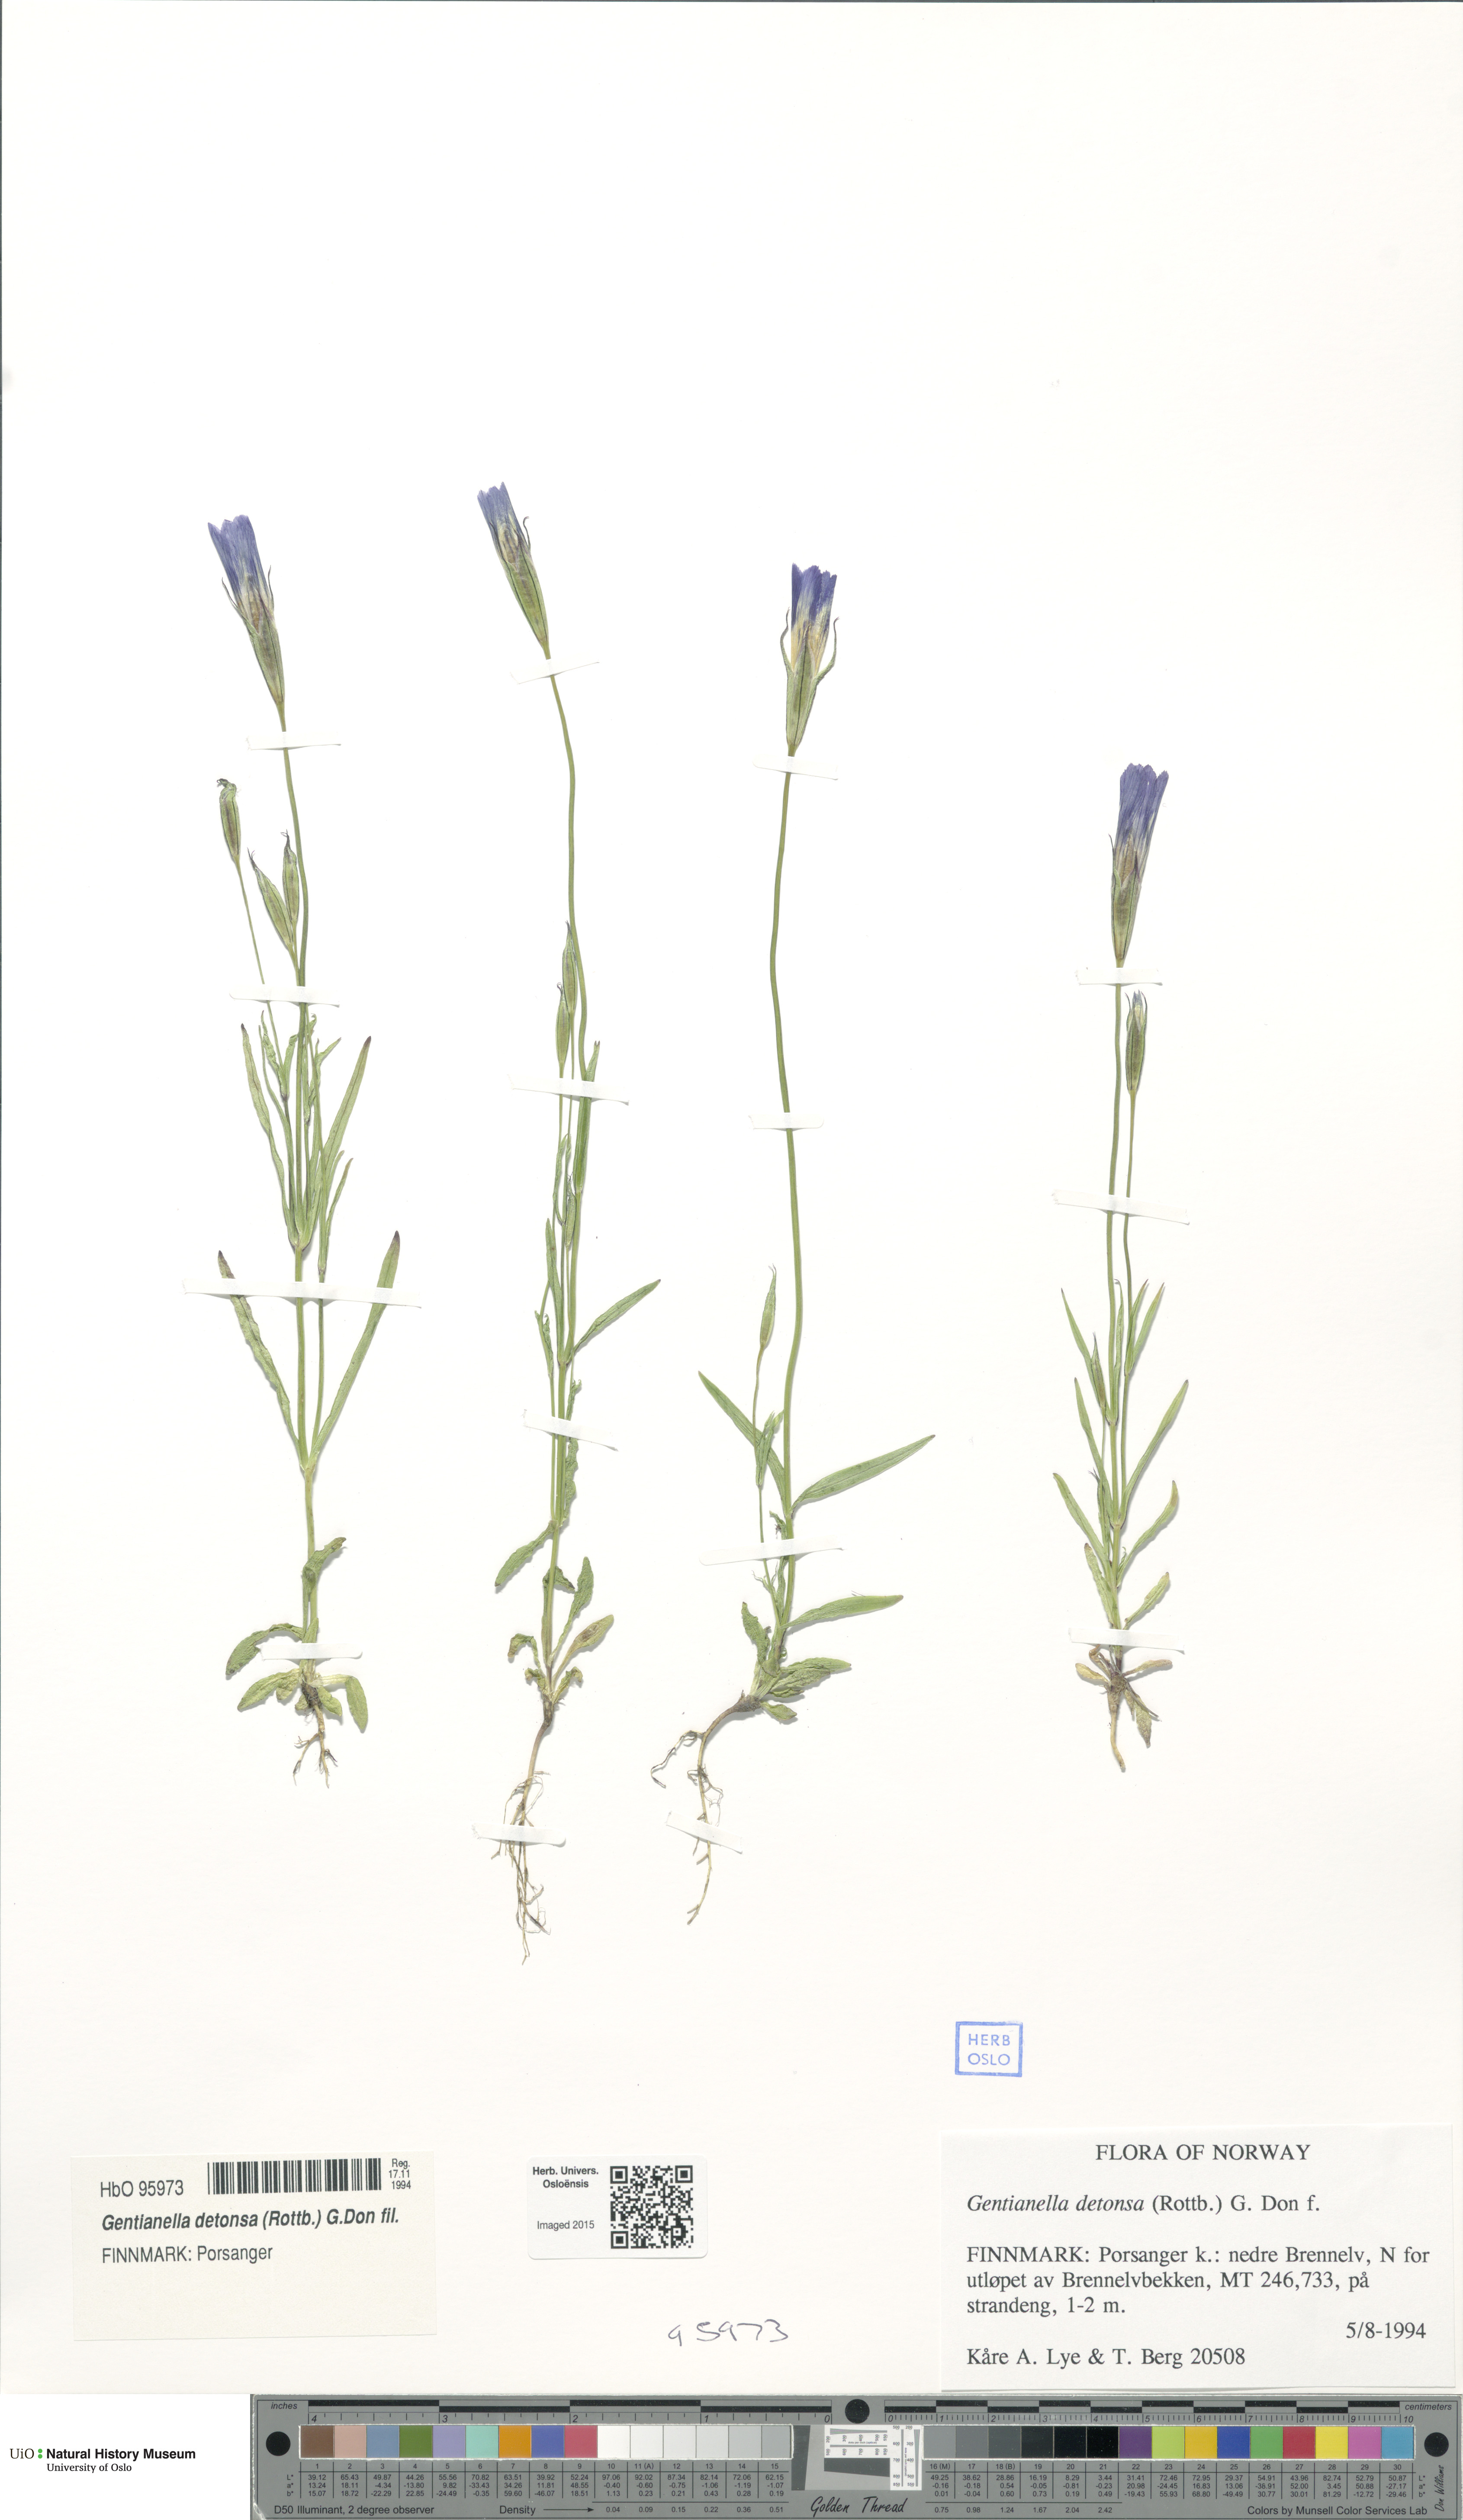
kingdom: Plantae
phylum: Tracheophyta
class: Magnoliopsida
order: Gentianales
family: Gentianaceae
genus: Gentianopsis
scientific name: Gentianopsis detonsa
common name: Fringed-gentian
